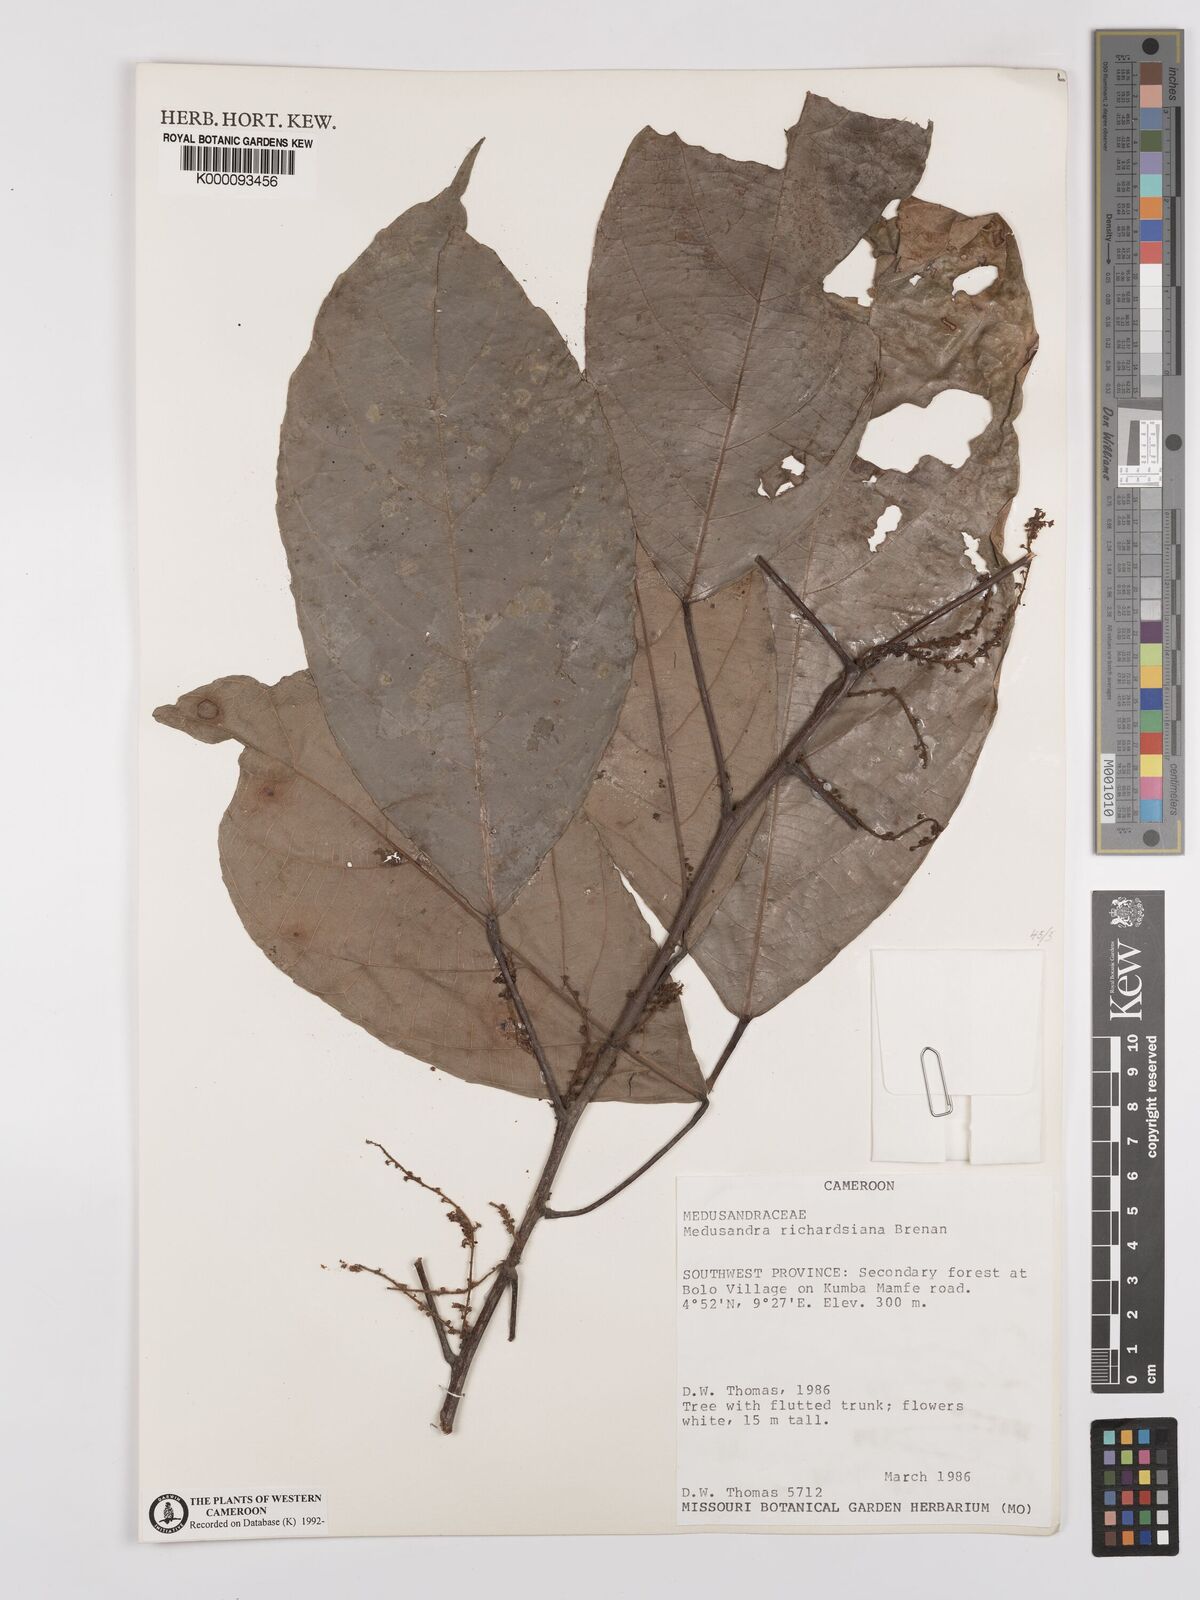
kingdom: Plantae
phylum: Tracheophyta
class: Magnoliopsida
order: Saxifragales
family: Peridiscaceae
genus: Medusandra
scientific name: Medusandra richardsiana
